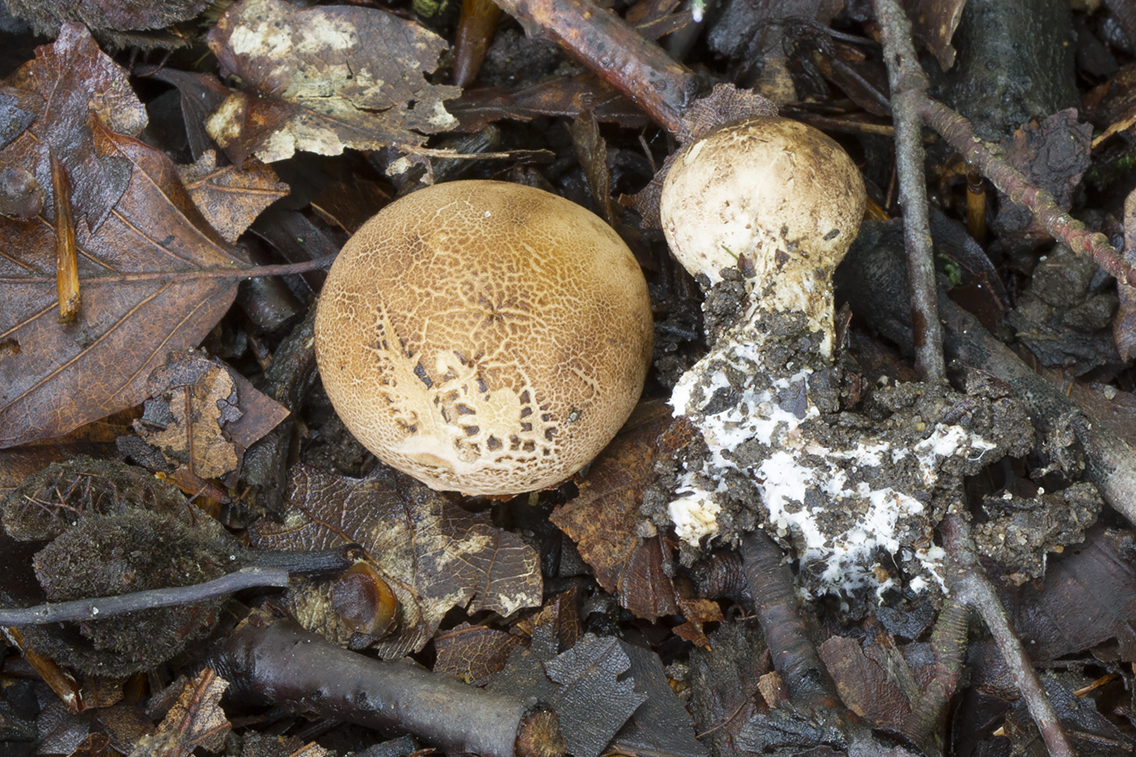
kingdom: Fungi
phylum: Basidiomycota
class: Agaricomycetes
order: Boletales
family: Sclerodermataceae
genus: Scleroderma
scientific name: Scleroderma verrucosum
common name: stilket bruskbold
